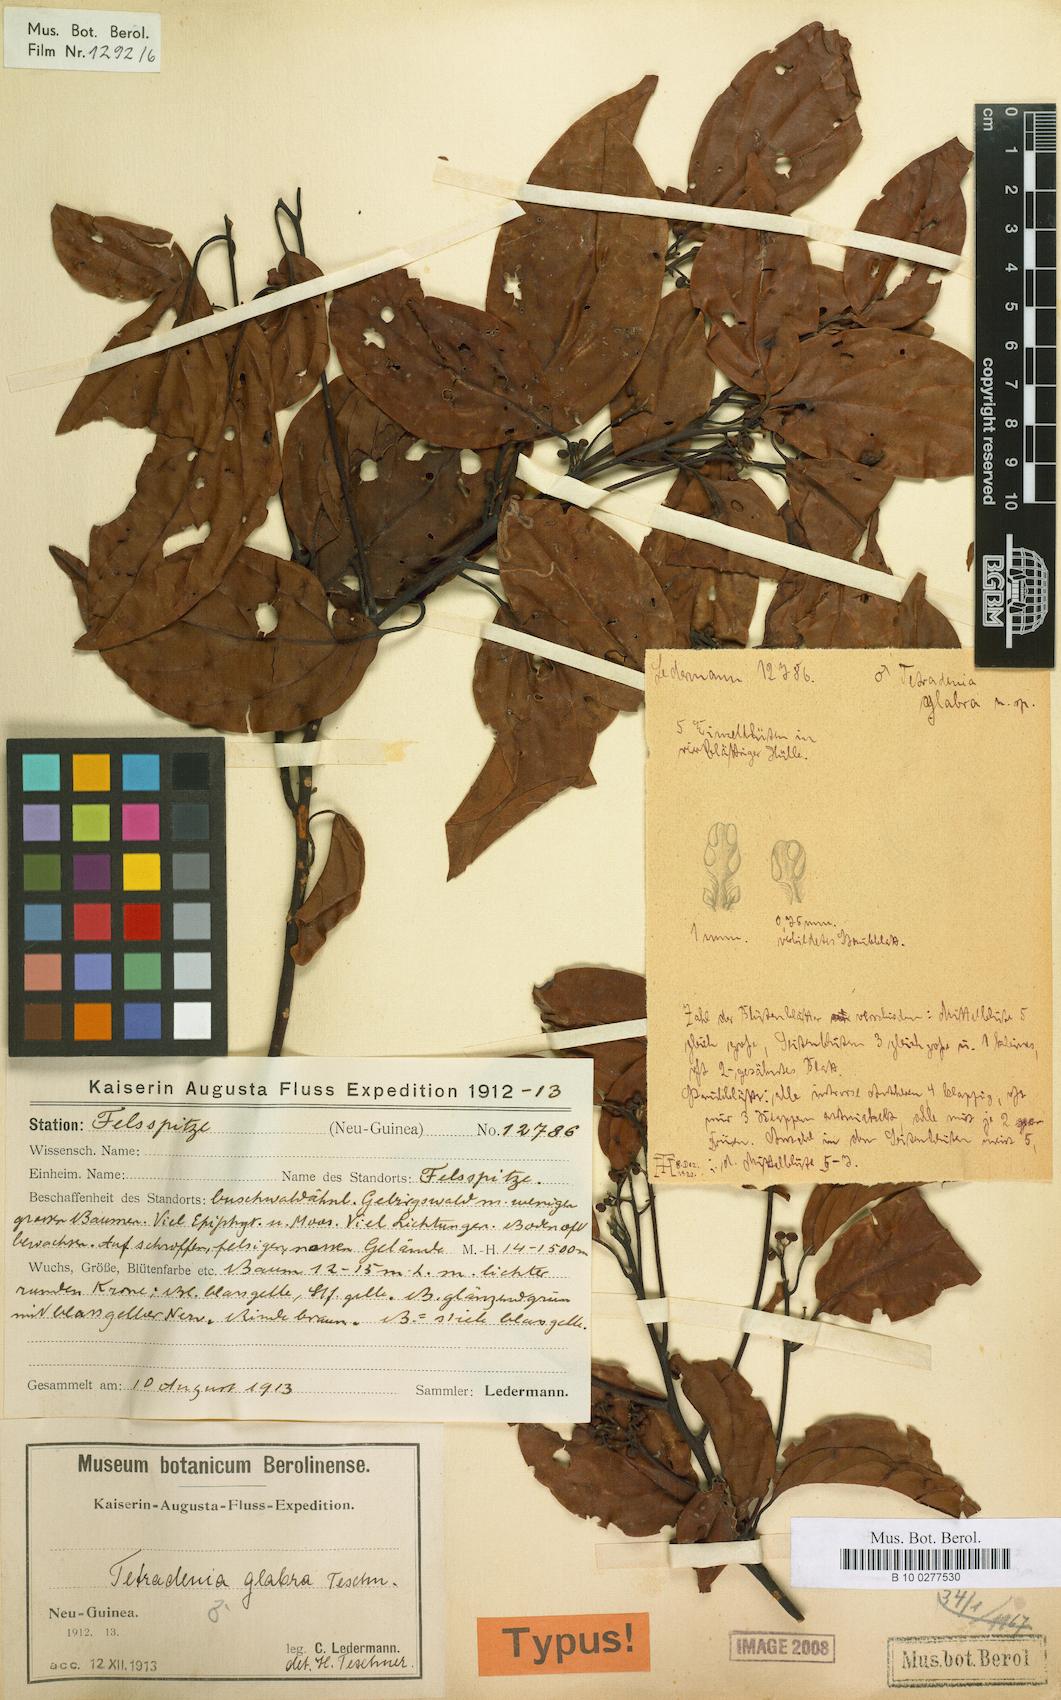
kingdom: Plantae
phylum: Tracheophyta
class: Magnoliopsida
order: Laurales
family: Lauraceae
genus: Neolitsea
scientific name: Neolitsea glabra
